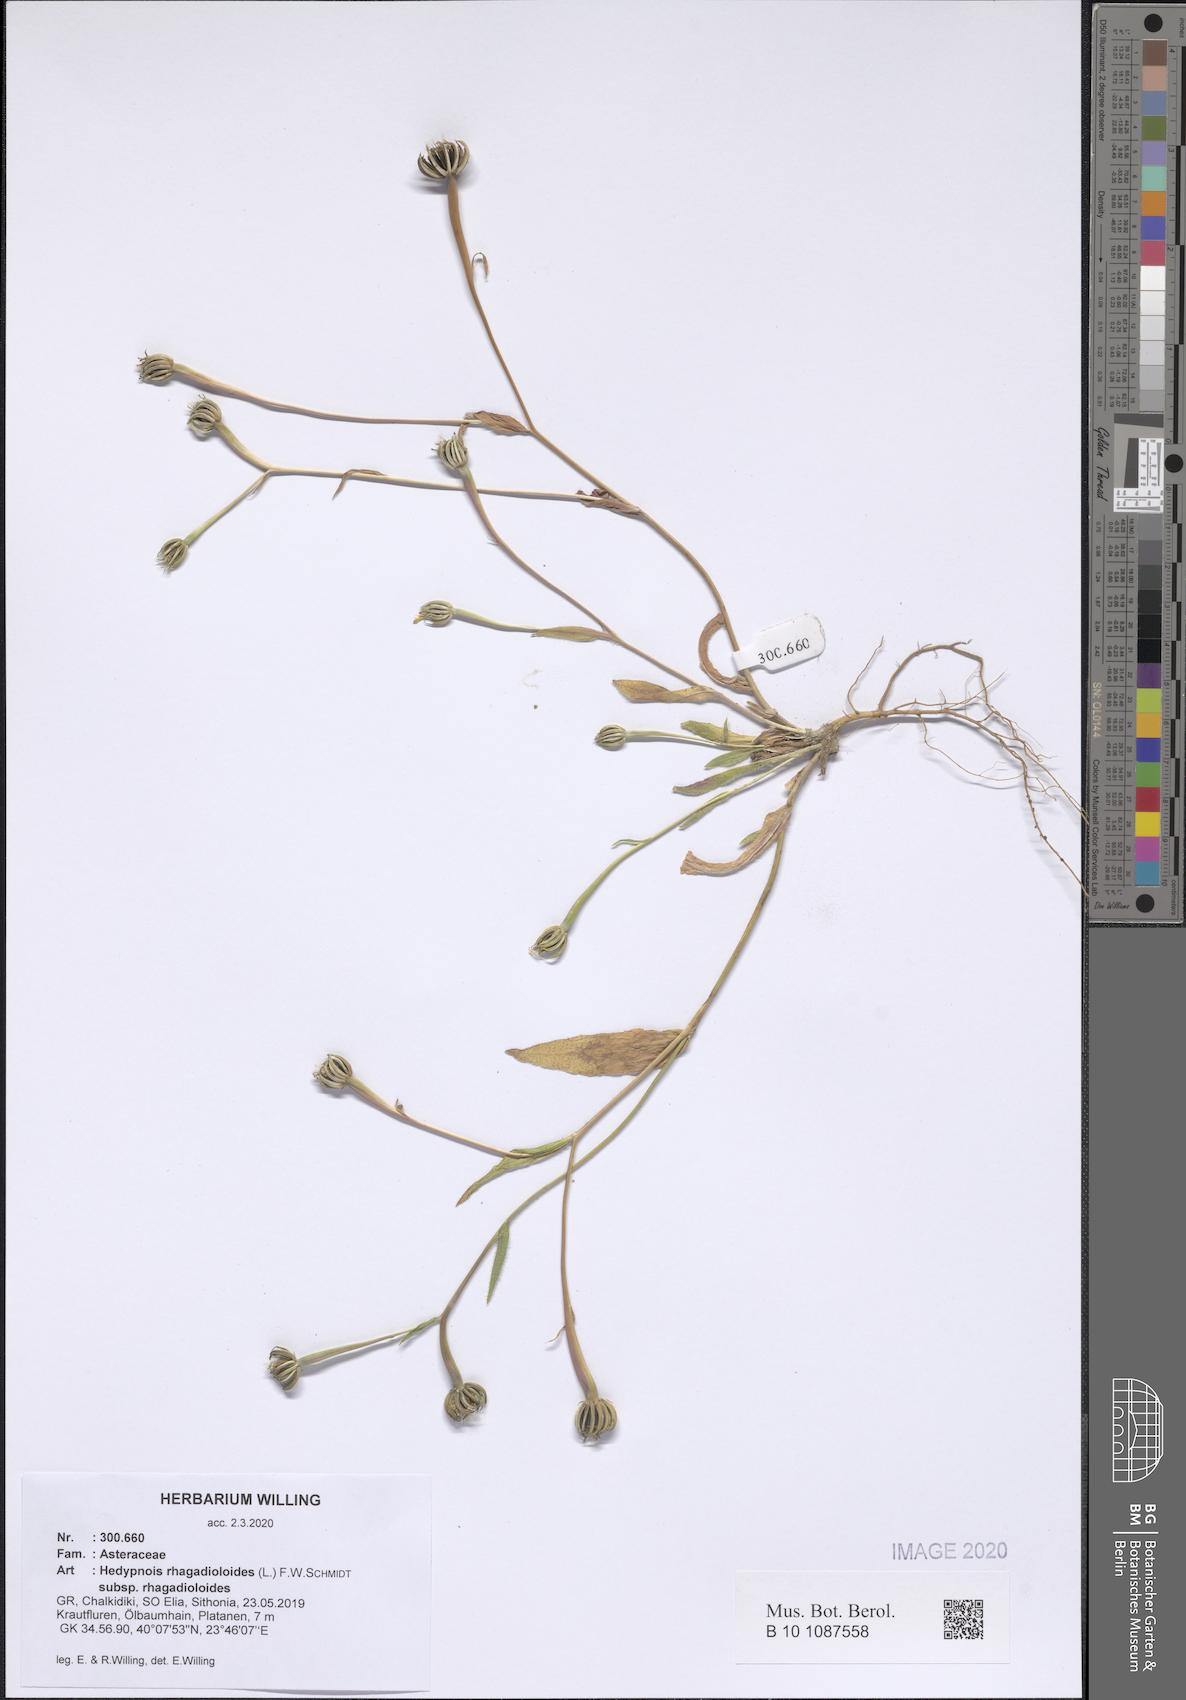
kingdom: Plantae
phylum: Tracheophyta
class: Magnoliopsida
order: Asterales
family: Asteraceae
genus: Hedypnois
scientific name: Hedypnois rhagadioloides
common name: Cretan weed
